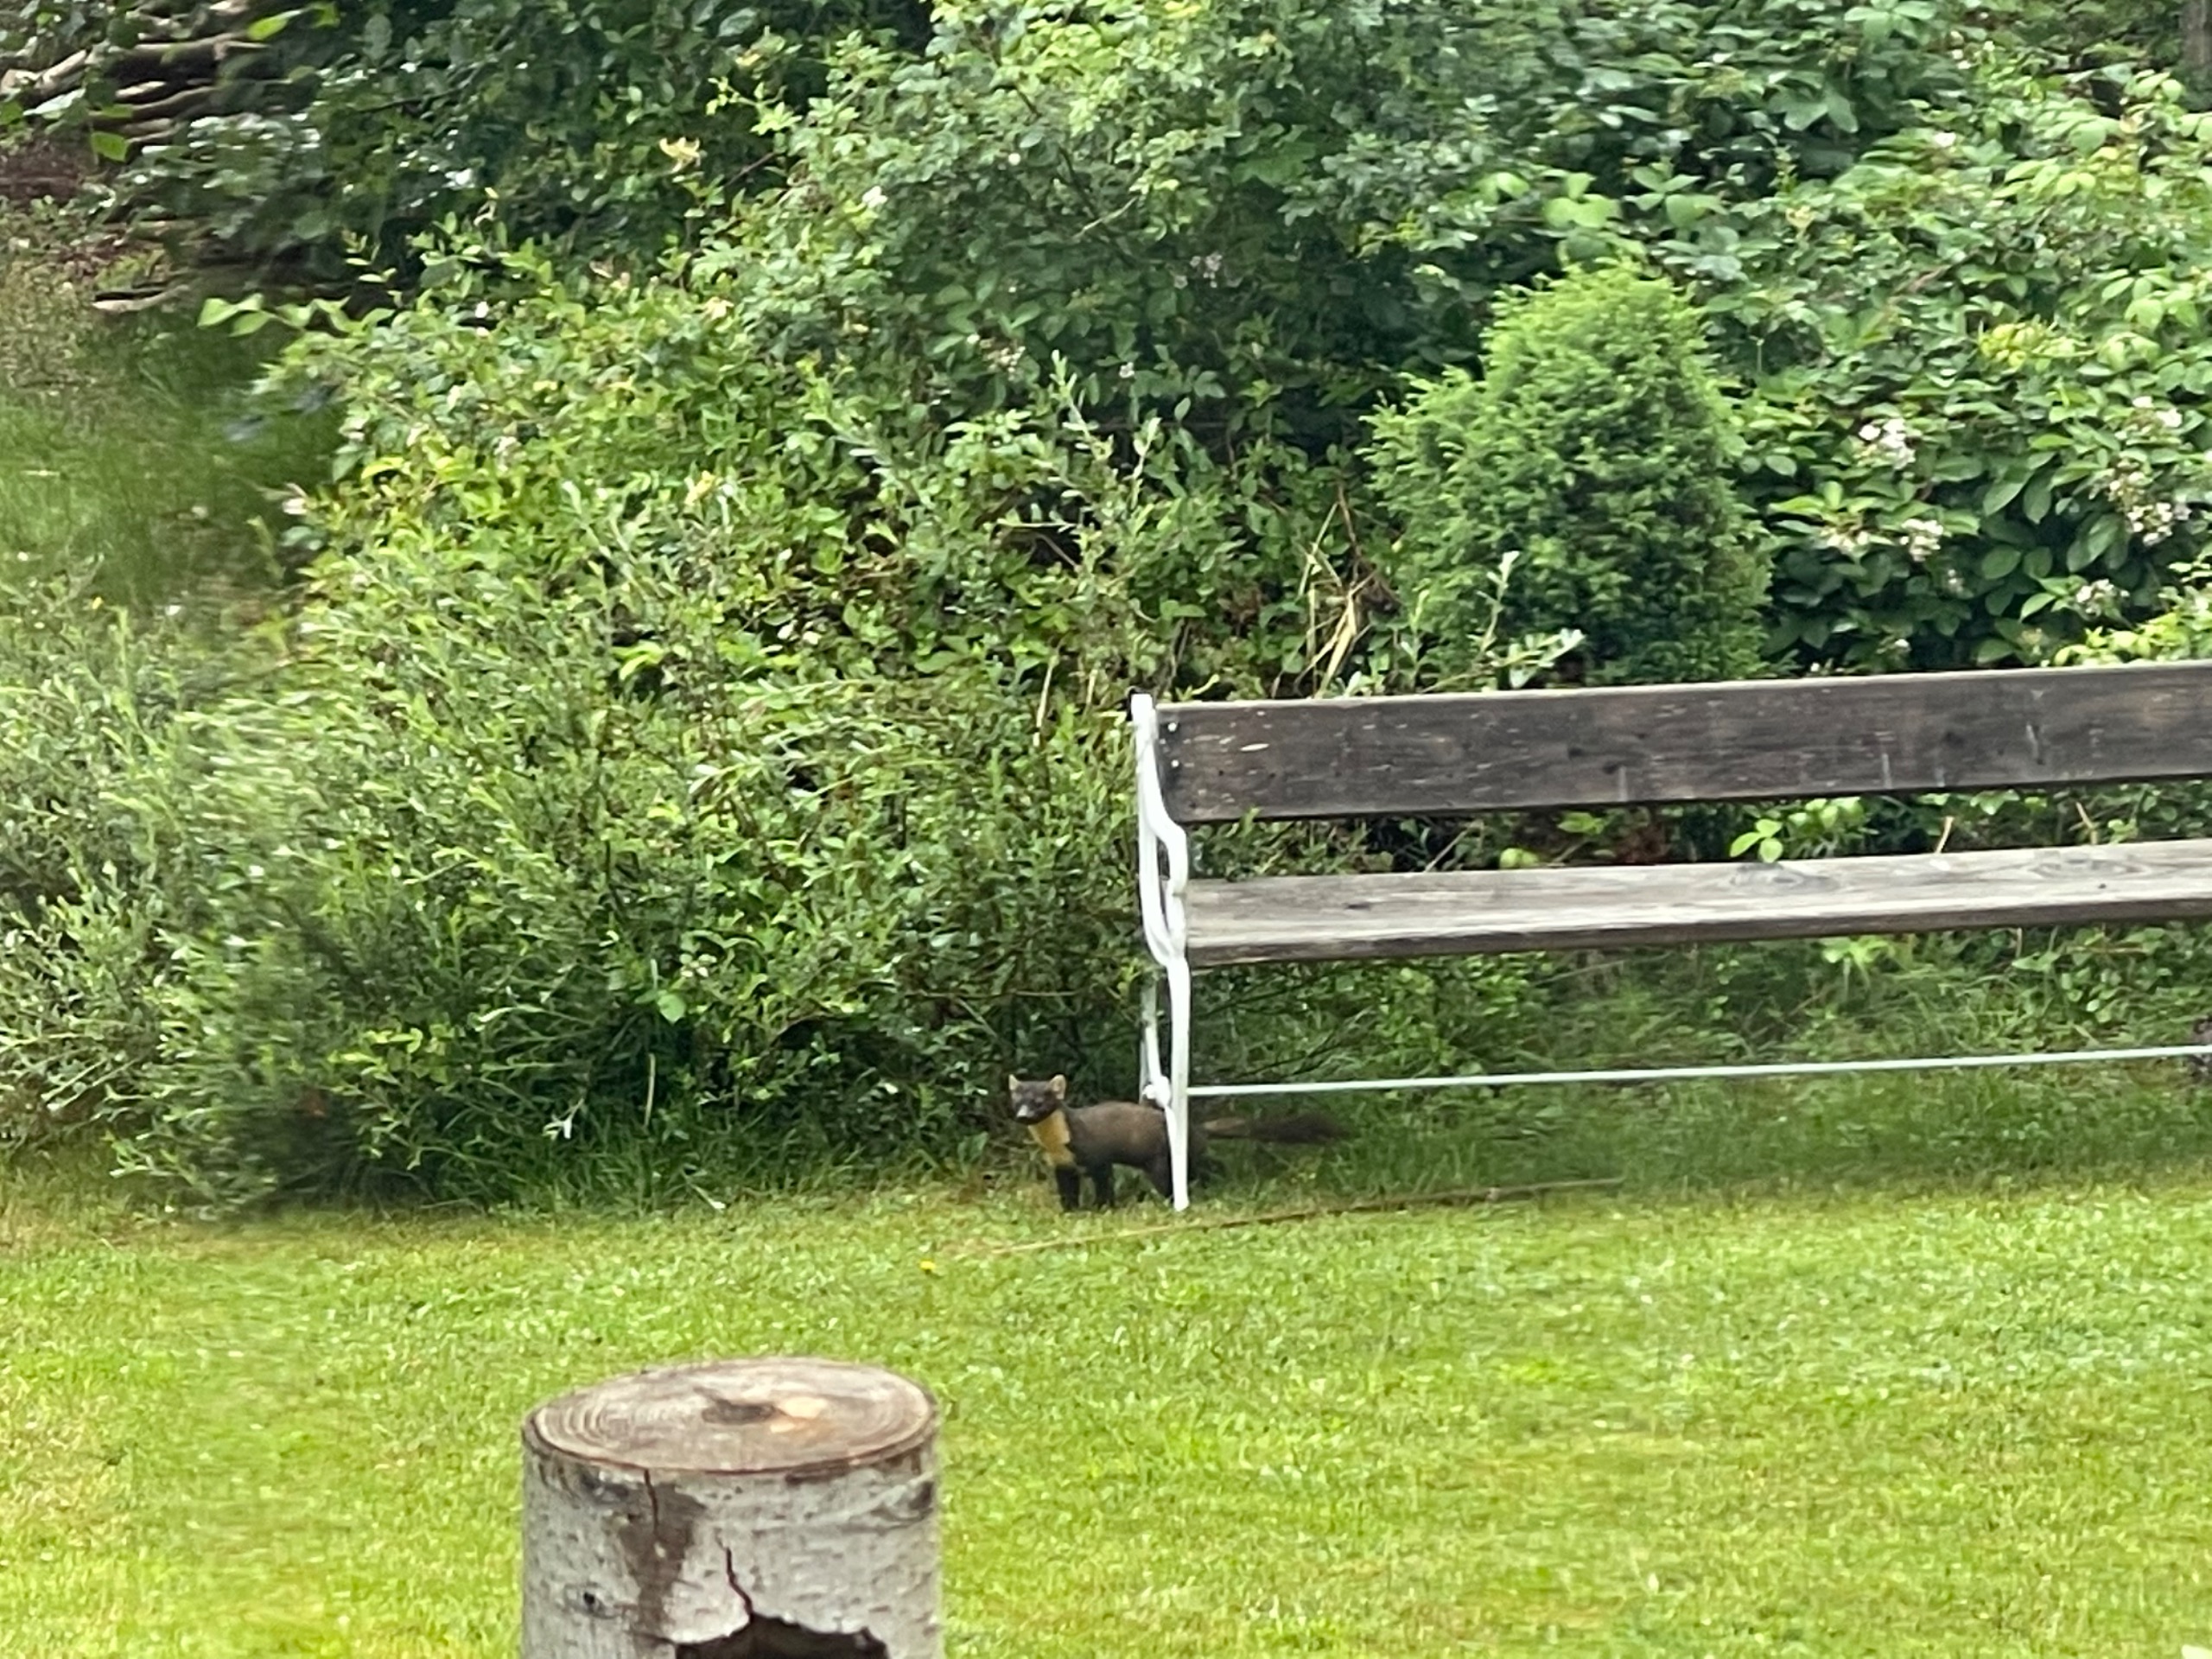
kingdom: Animalia
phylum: Chordata
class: Mammalia
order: Carnivora
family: Mustelidae
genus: Martes
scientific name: Martes martes
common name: Skovmår
